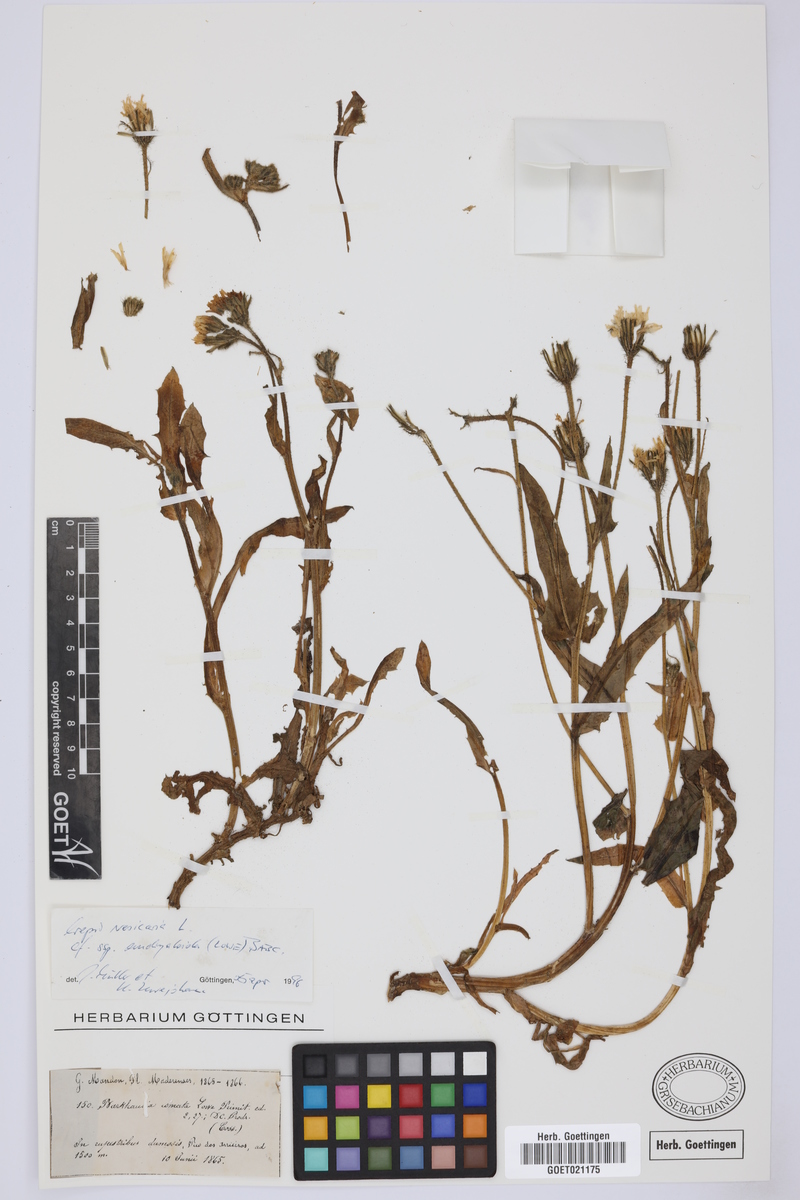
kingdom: Plantae
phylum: Tracheophyta
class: Magnoliopsida
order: Asterales
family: Asteraceae
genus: Crepis
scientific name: Crepis vesicaria
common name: Beaked hawksbeard
